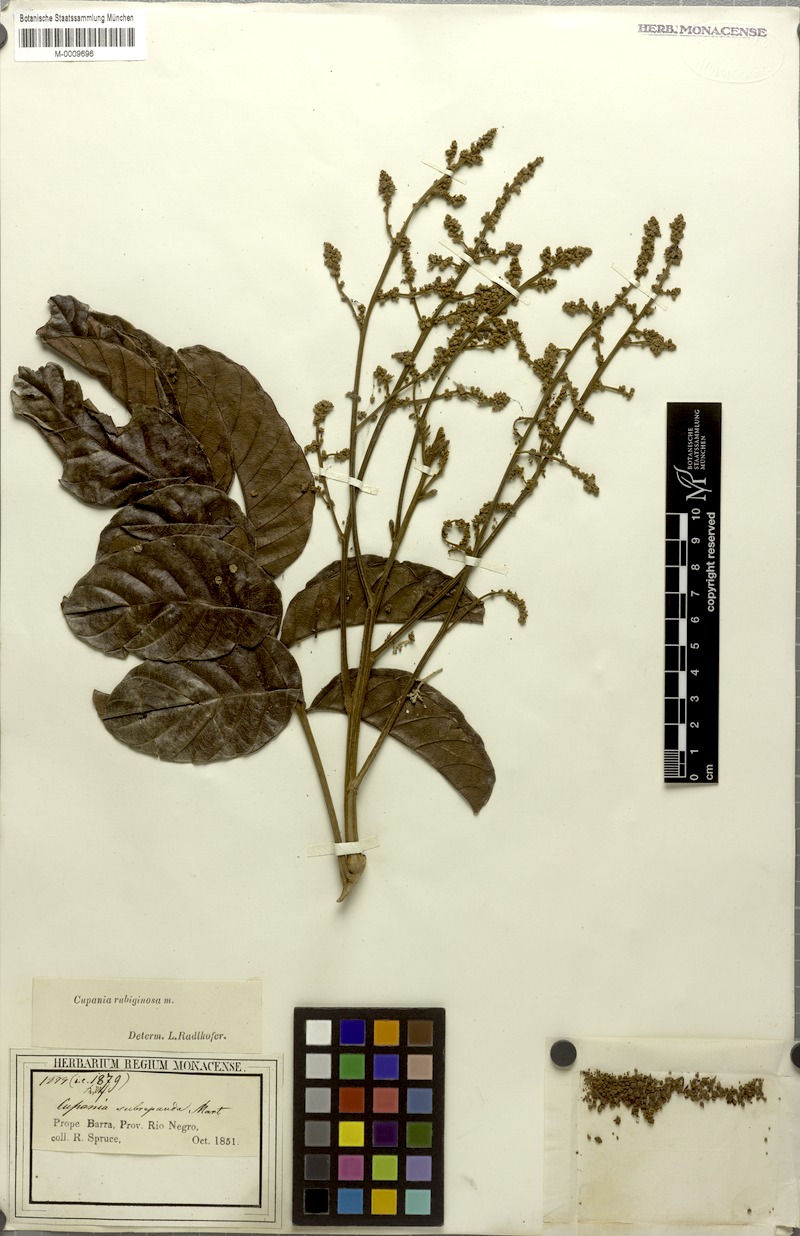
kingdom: Plantae
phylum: Tracheophyta
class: Magnoliopsida
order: Sapindales
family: Sapindaceae
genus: Cupania
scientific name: Cupania rubiginosa
